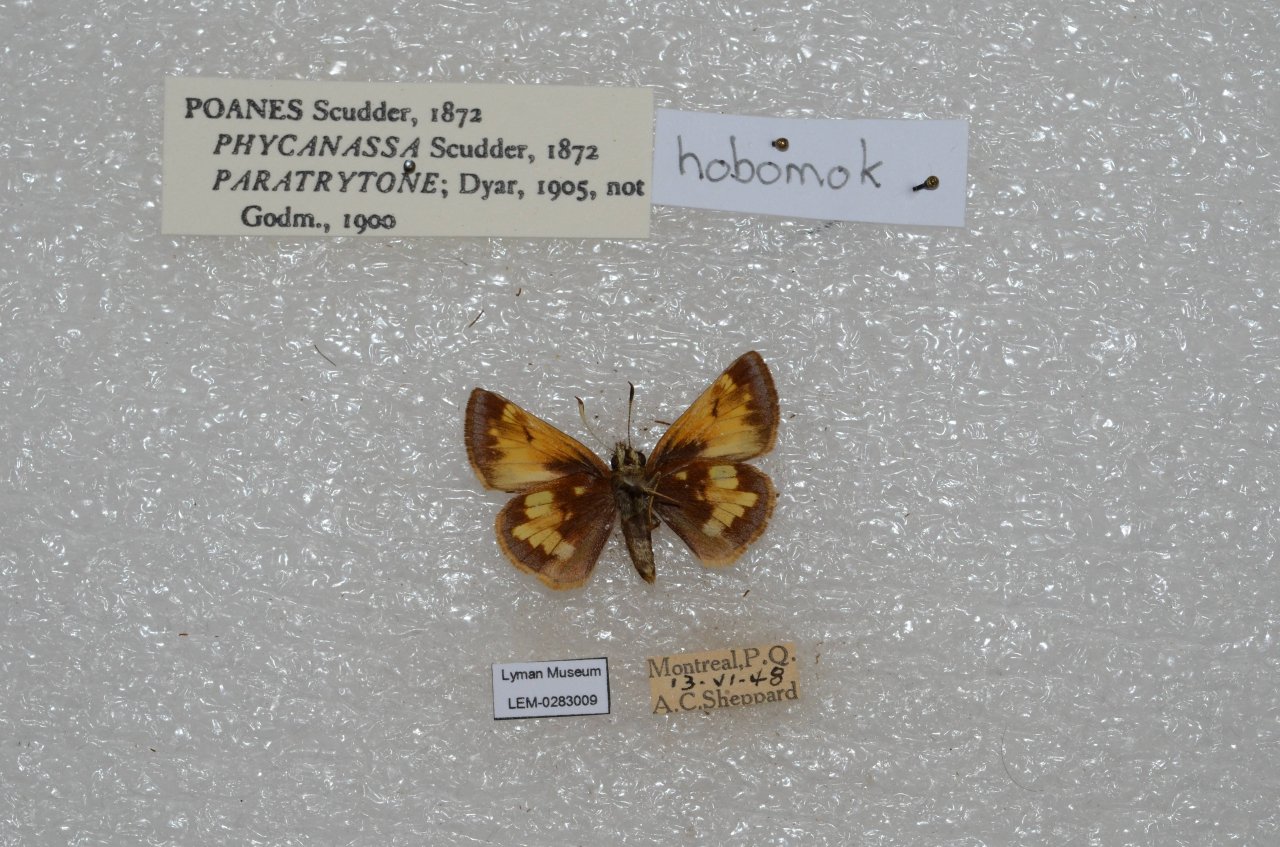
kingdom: Animalia
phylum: Arthropoda
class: Insecta
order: Lepidoptera
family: Hesperiidae
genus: Lon
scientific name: Lon hobomok
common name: Hobomok Skipper
